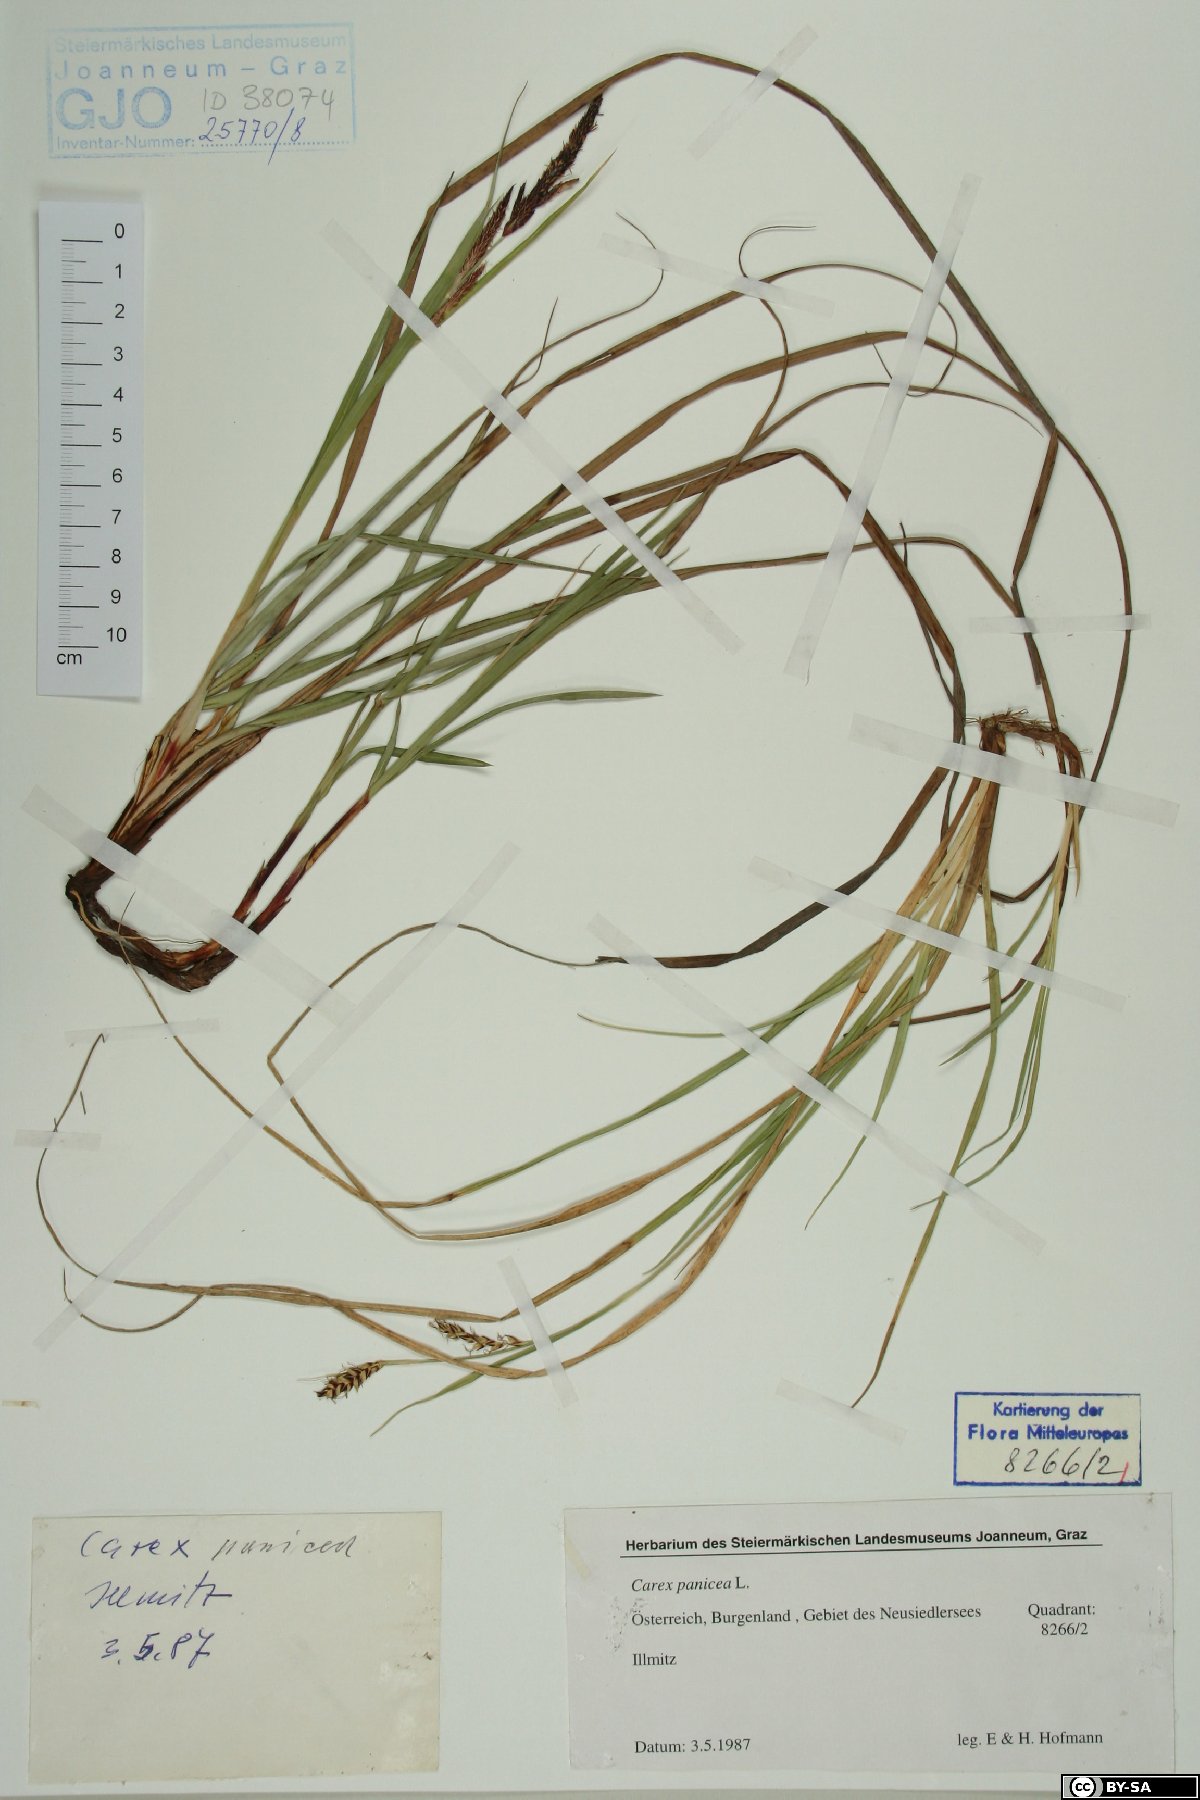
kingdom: Plantae
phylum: Tracheophyta
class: Liliopsida
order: Poales
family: Cyperaceae
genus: Carex
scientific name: Carex panicea
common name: Carnation sedge
